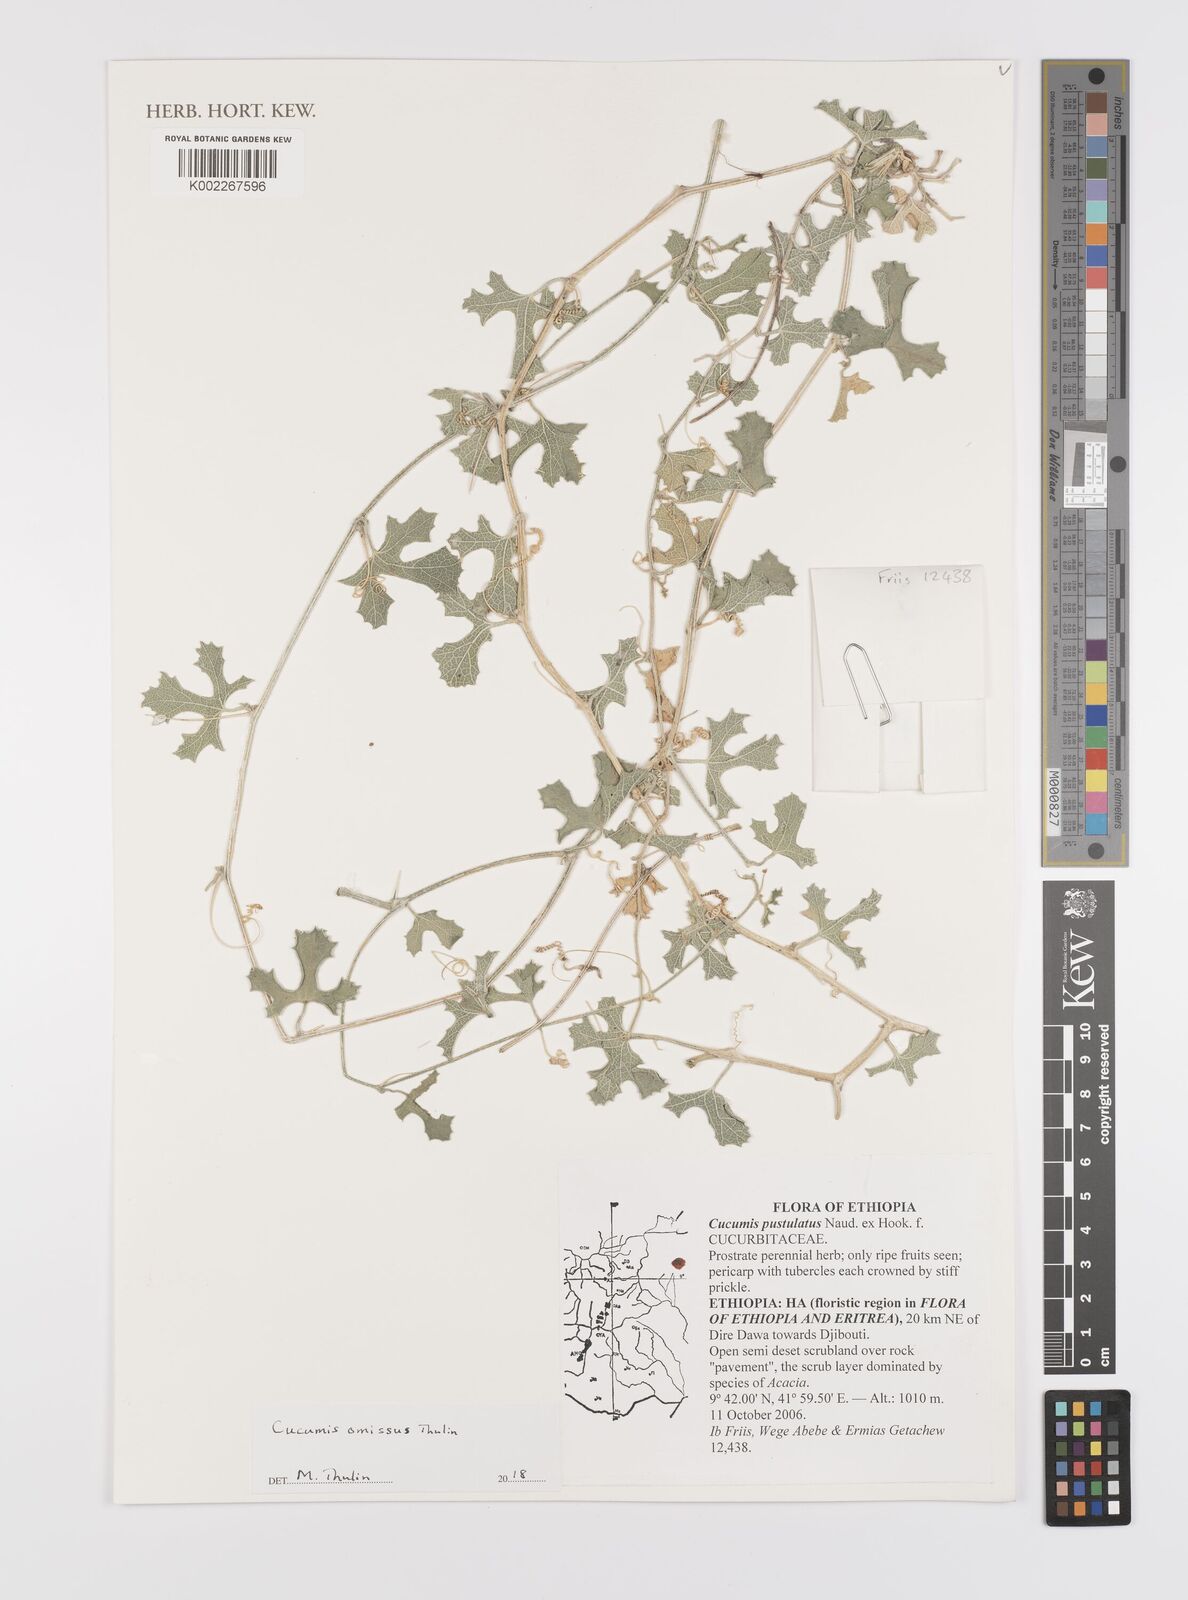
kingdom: Plantae
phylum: Tracheophyta
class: Magnoliopsida
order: Cucurbitales
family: Cucurbitaceae
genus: Cucumis
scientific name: Cucumis omissus
